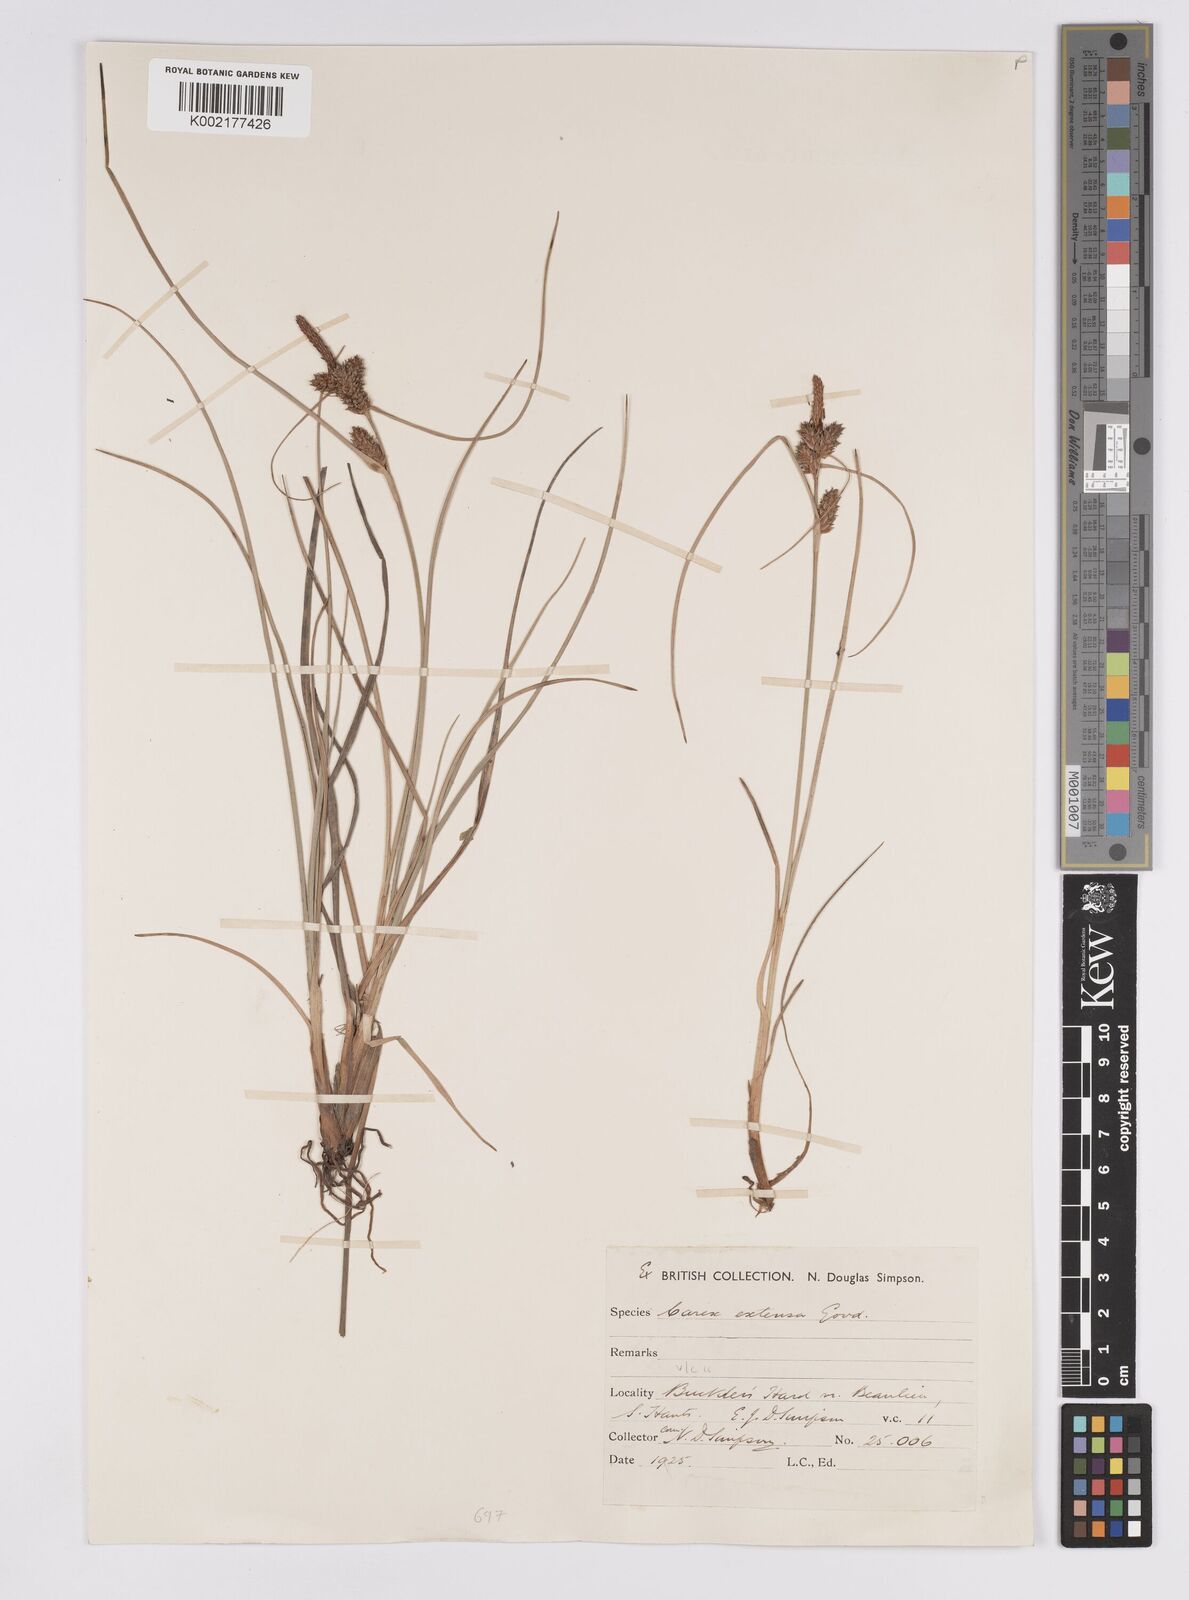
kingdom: Plantae
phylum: Tracheophyta
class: Liliopsida
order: Poales
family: Cyperaceae
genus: Carex
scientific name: Carex extensa
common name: Long-bracted sedge
